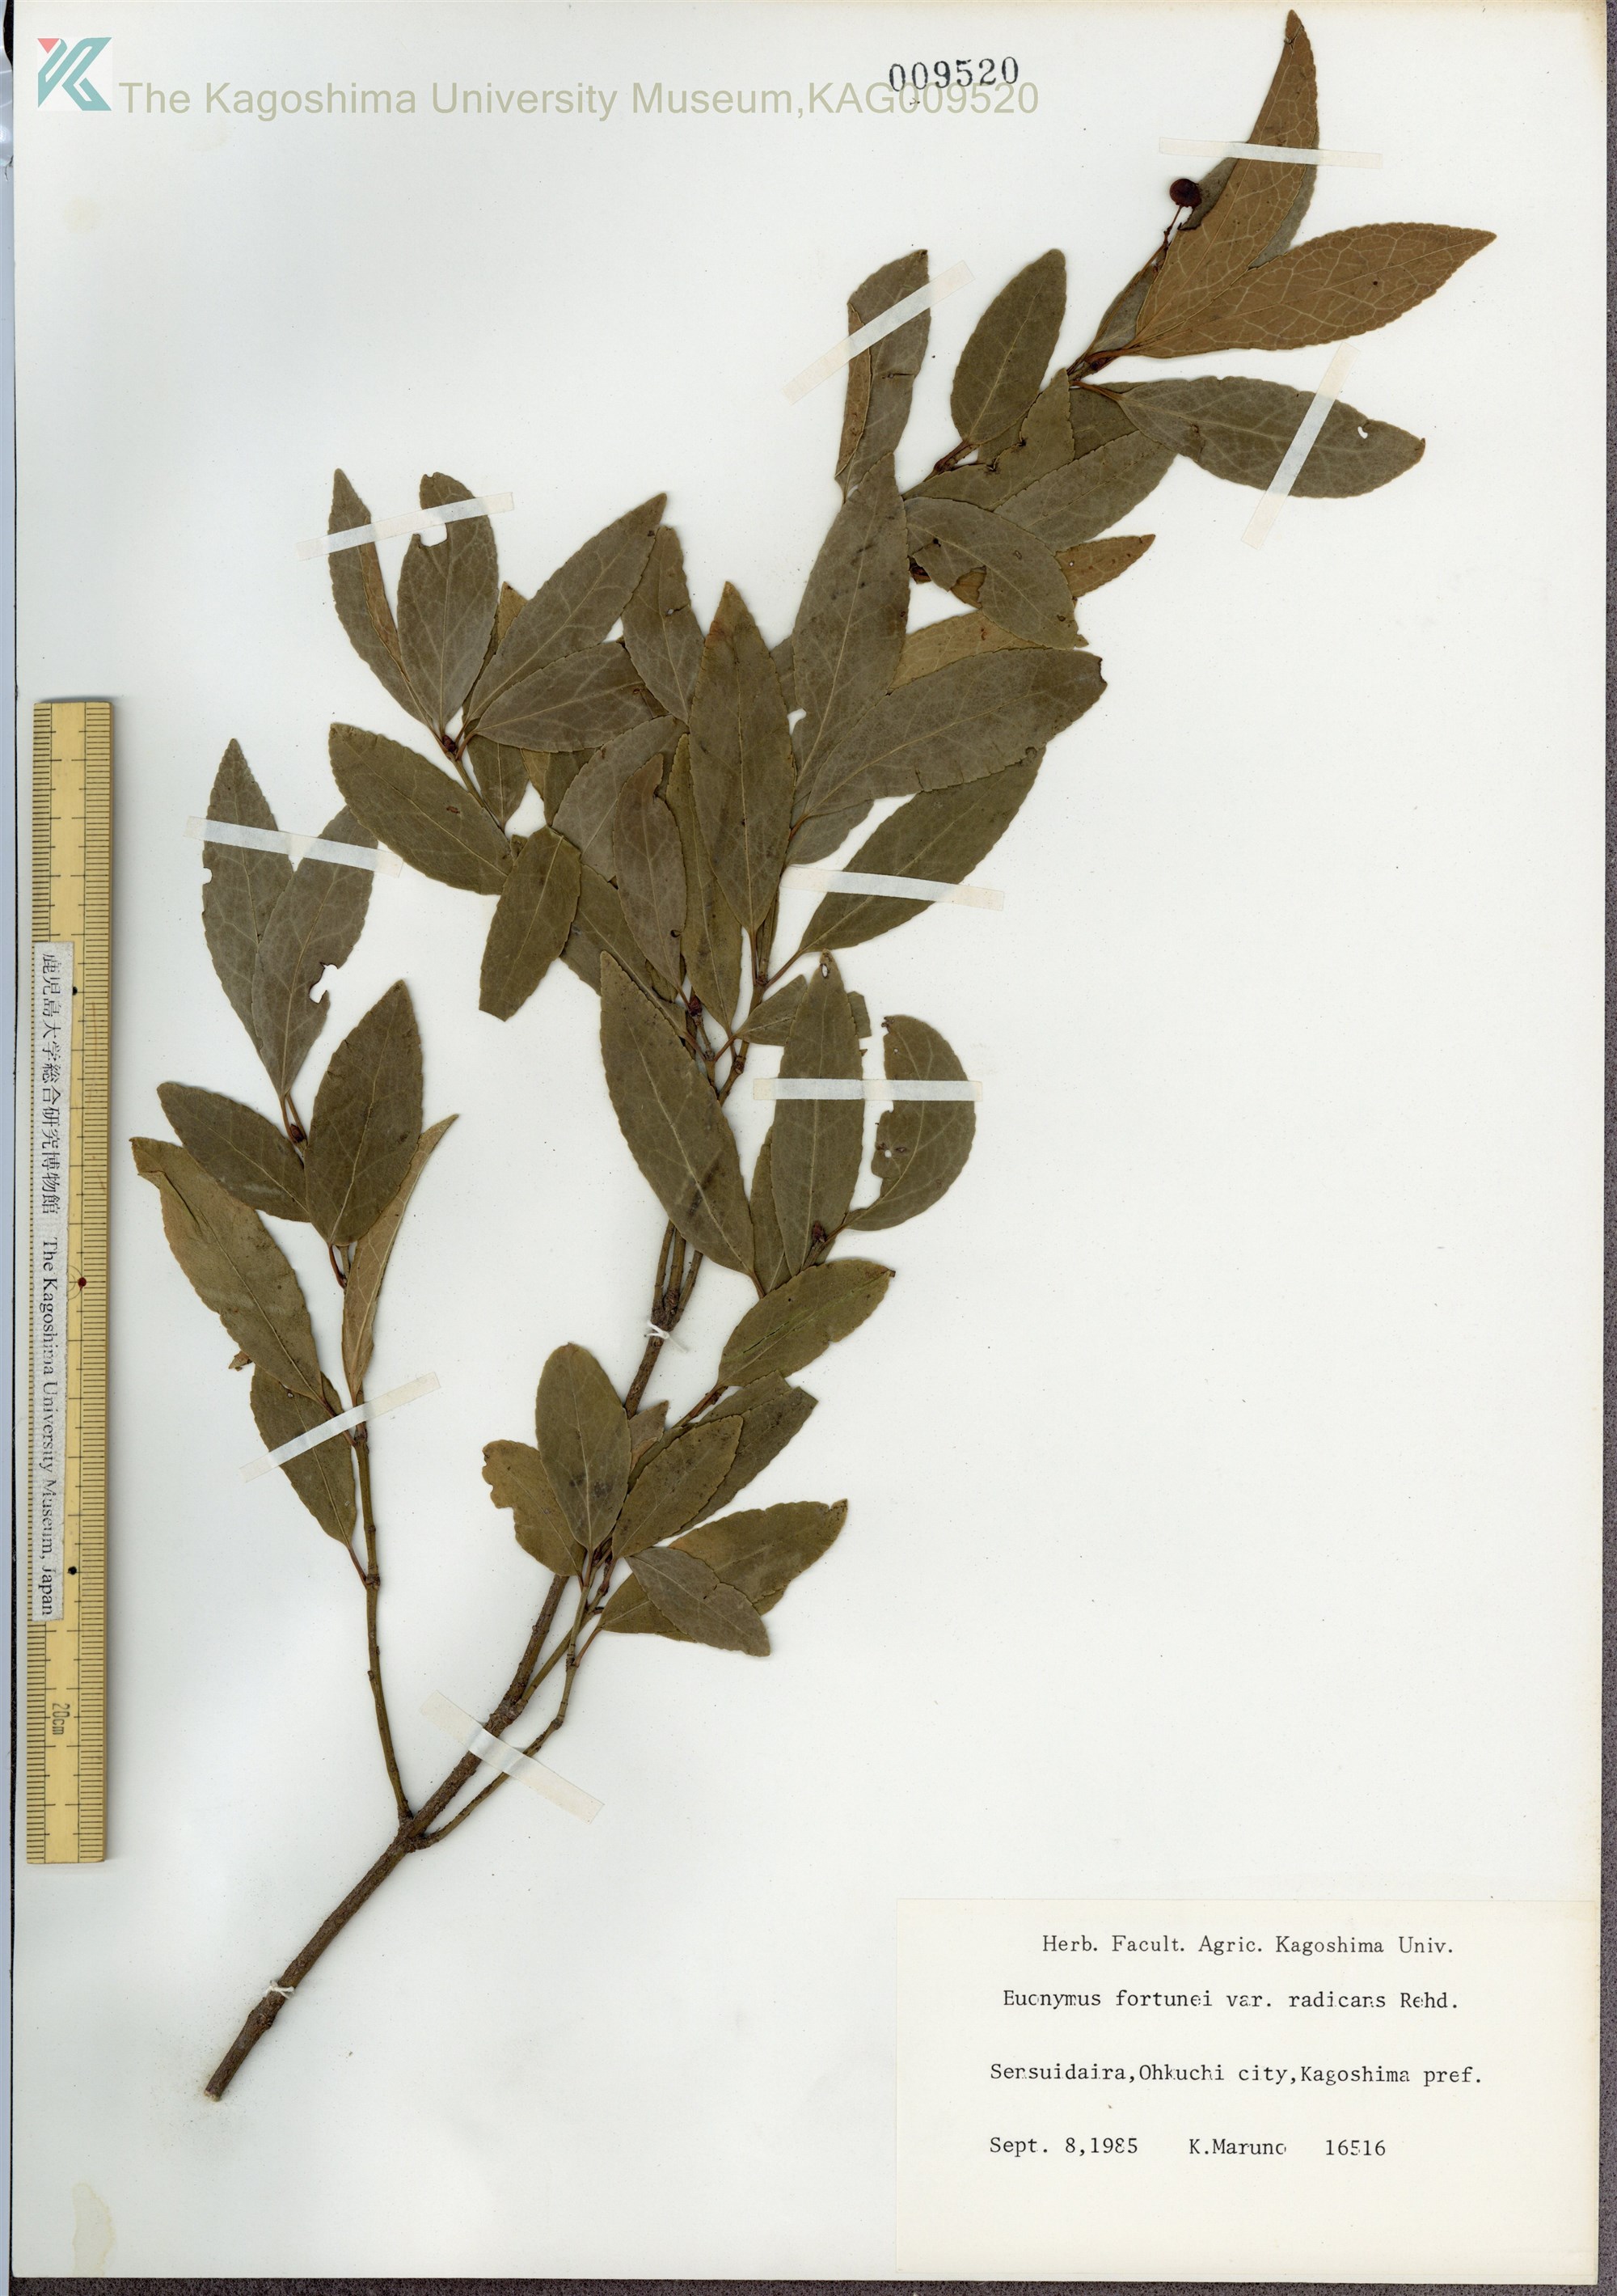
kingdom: Plantae
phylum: Tracheophyta
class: Magnoliopsida
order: Celastrales
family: Celastraceae
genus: Euonymus
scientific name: Euonymus fortunei
